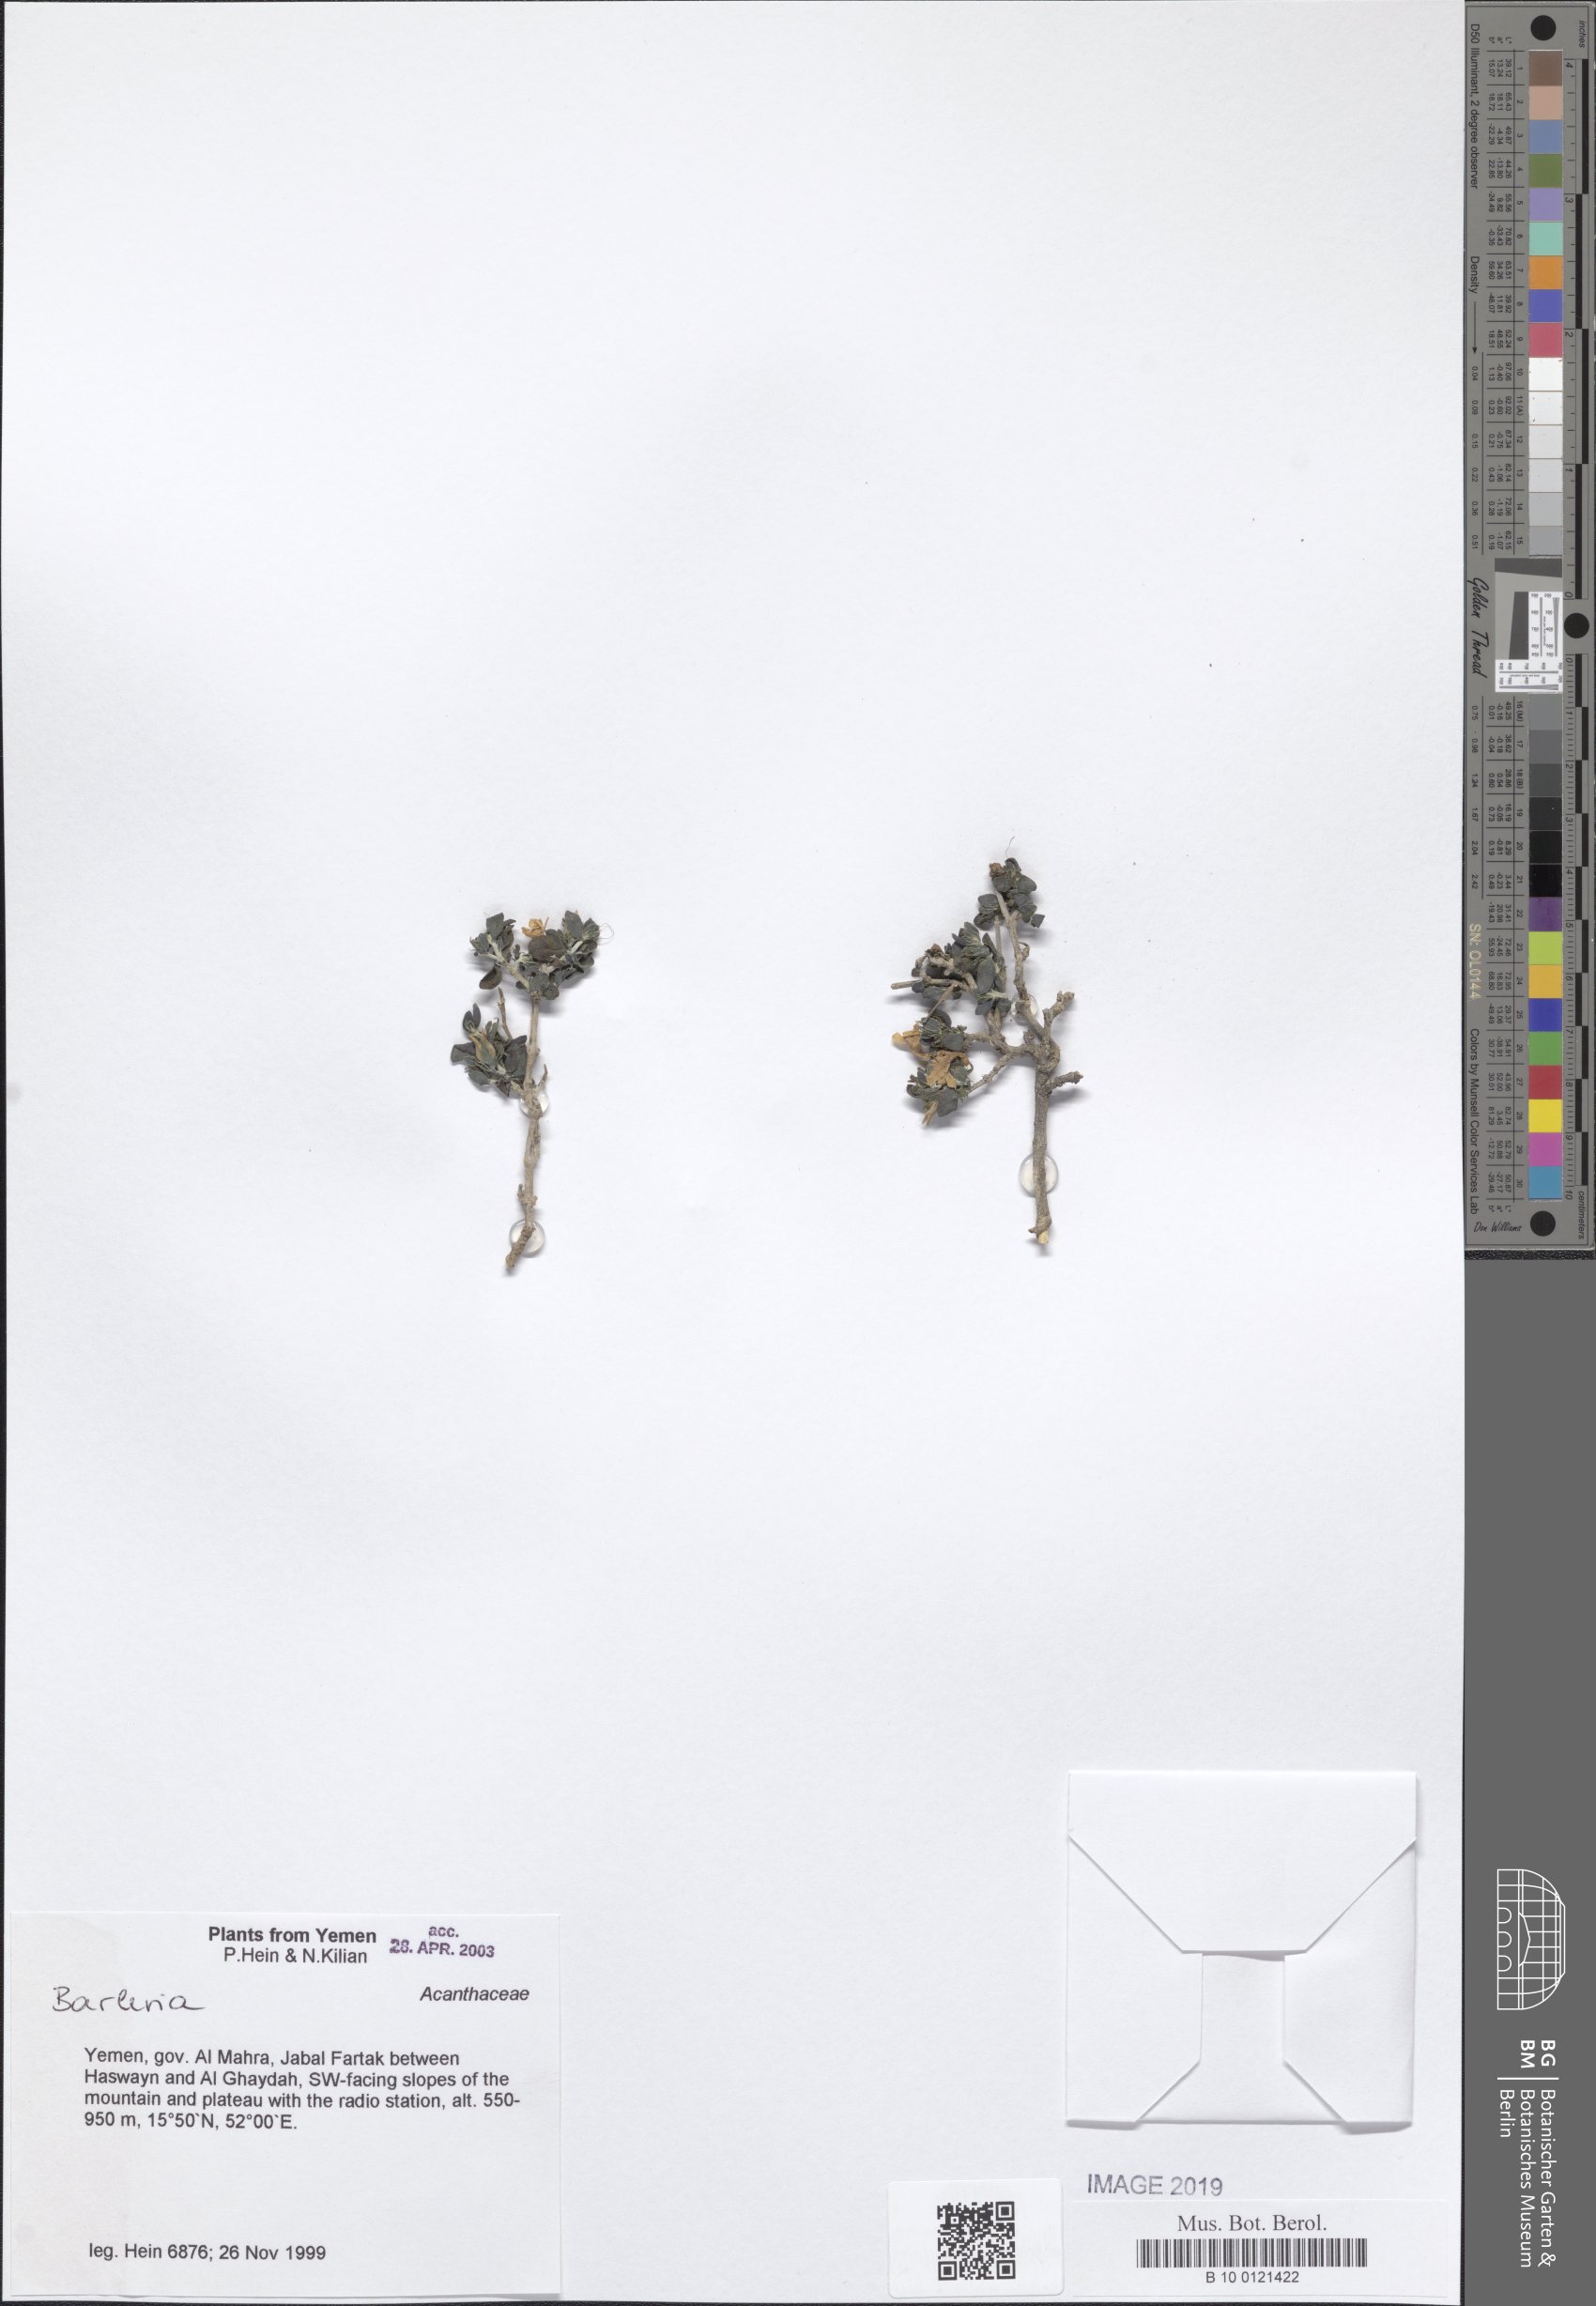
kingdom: Plantae
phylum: Tracheophyta
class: Magnoliopsida
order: Lamiales
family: Acanthaceae
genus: Barleria
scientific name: Barleria
